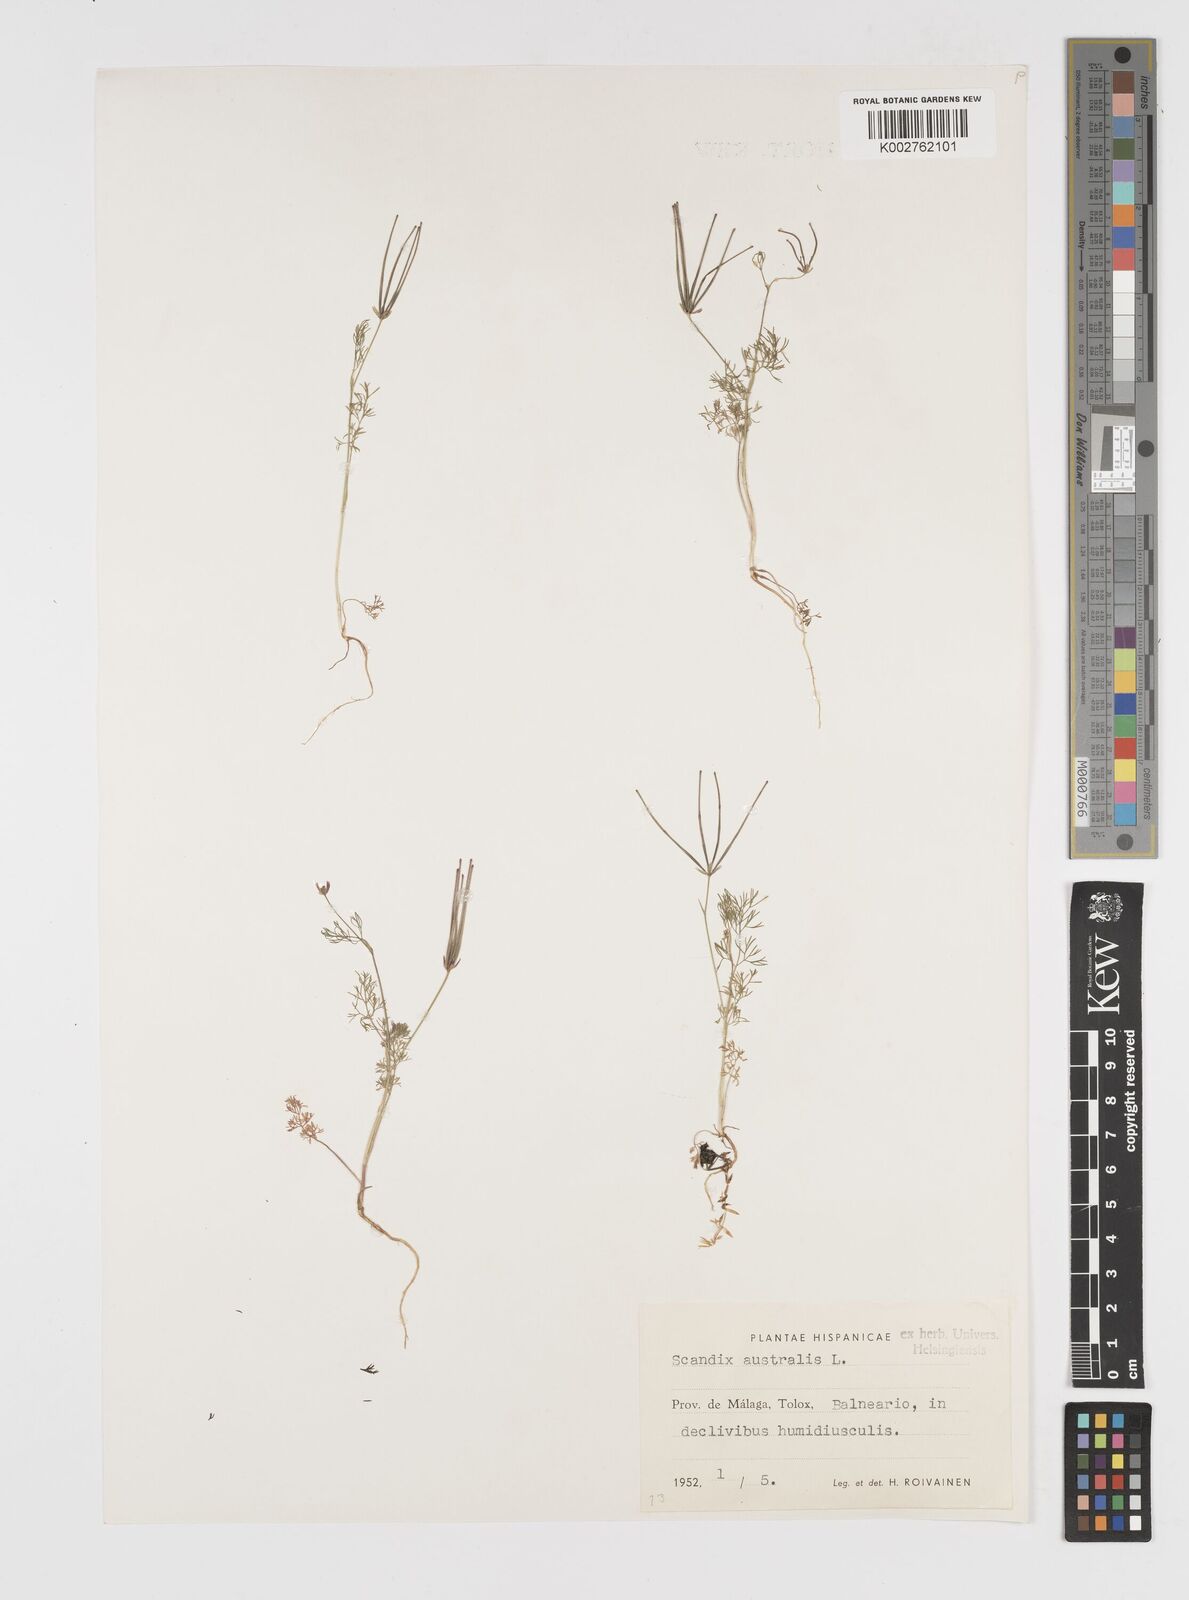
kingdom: Plantae
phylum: Tracheophyta
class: Magnoliopsida
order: Apiales
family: Apiaceae
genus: Scandix
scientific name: Scandix australis
